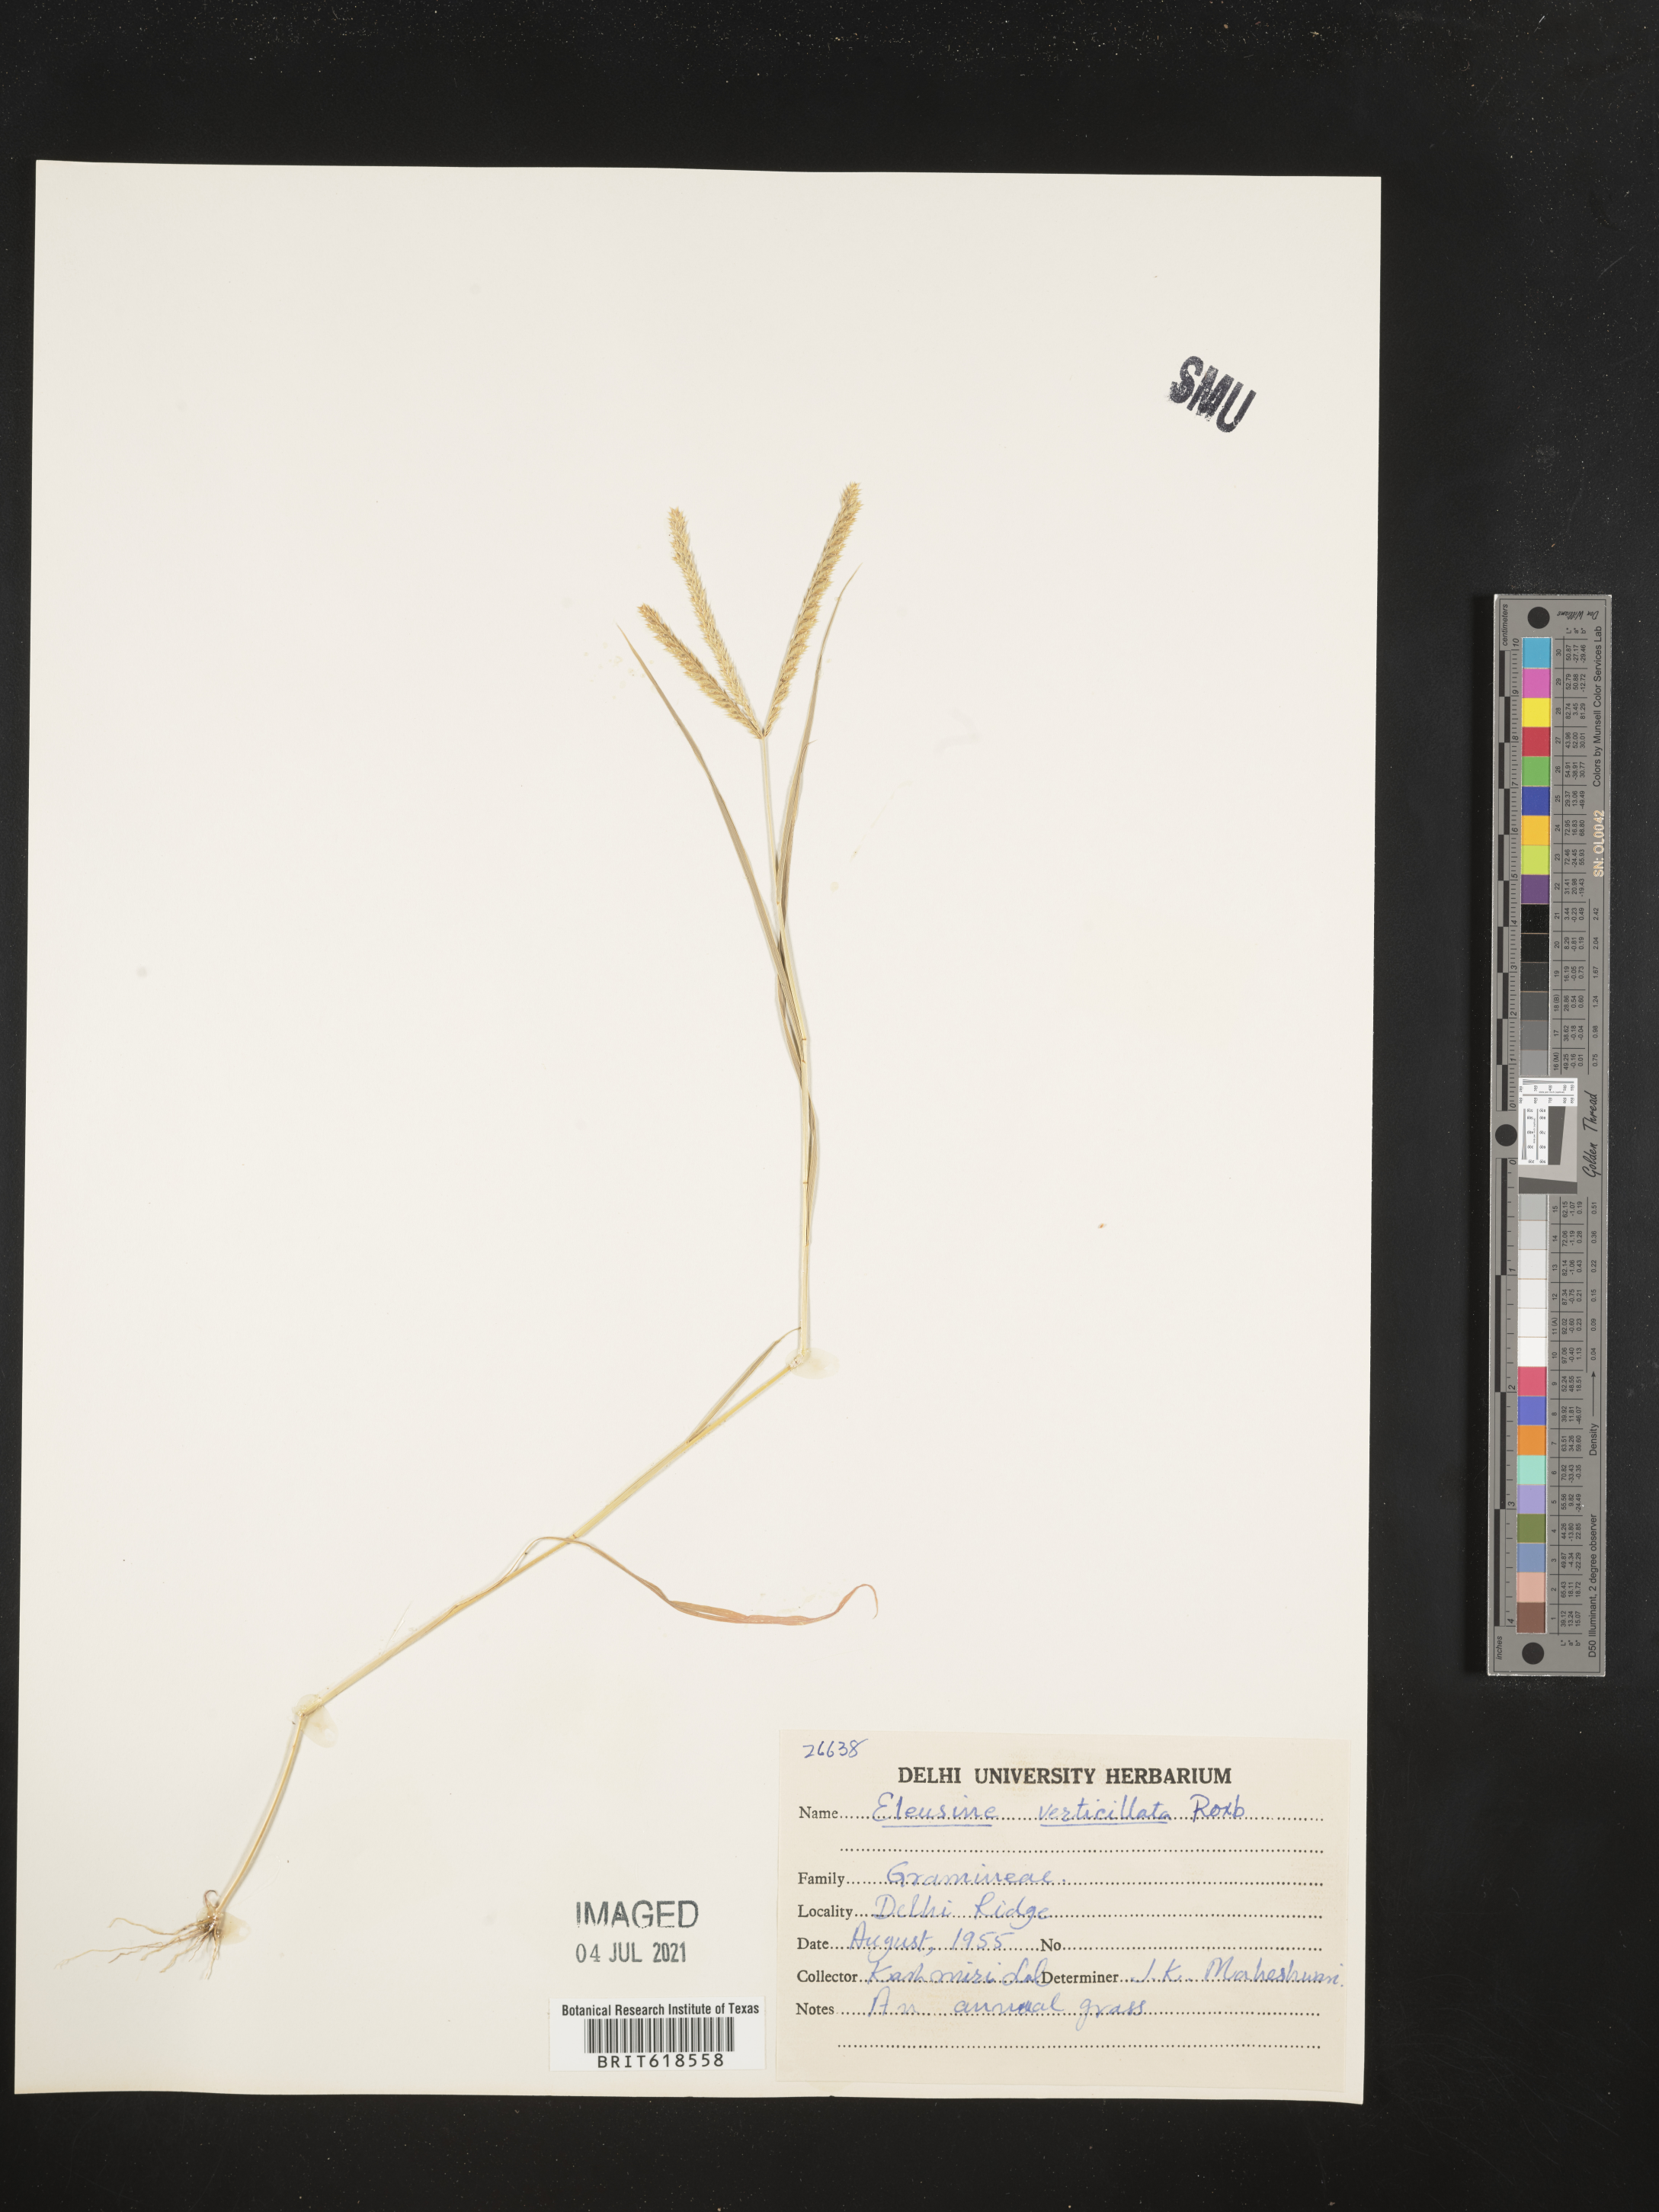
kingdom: Plantae
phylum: Tracheophyta
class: Liliopsida
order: Poales
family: Poaceae
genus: Acrachne
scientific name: Acrachne racemosa
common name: Goosegrass
